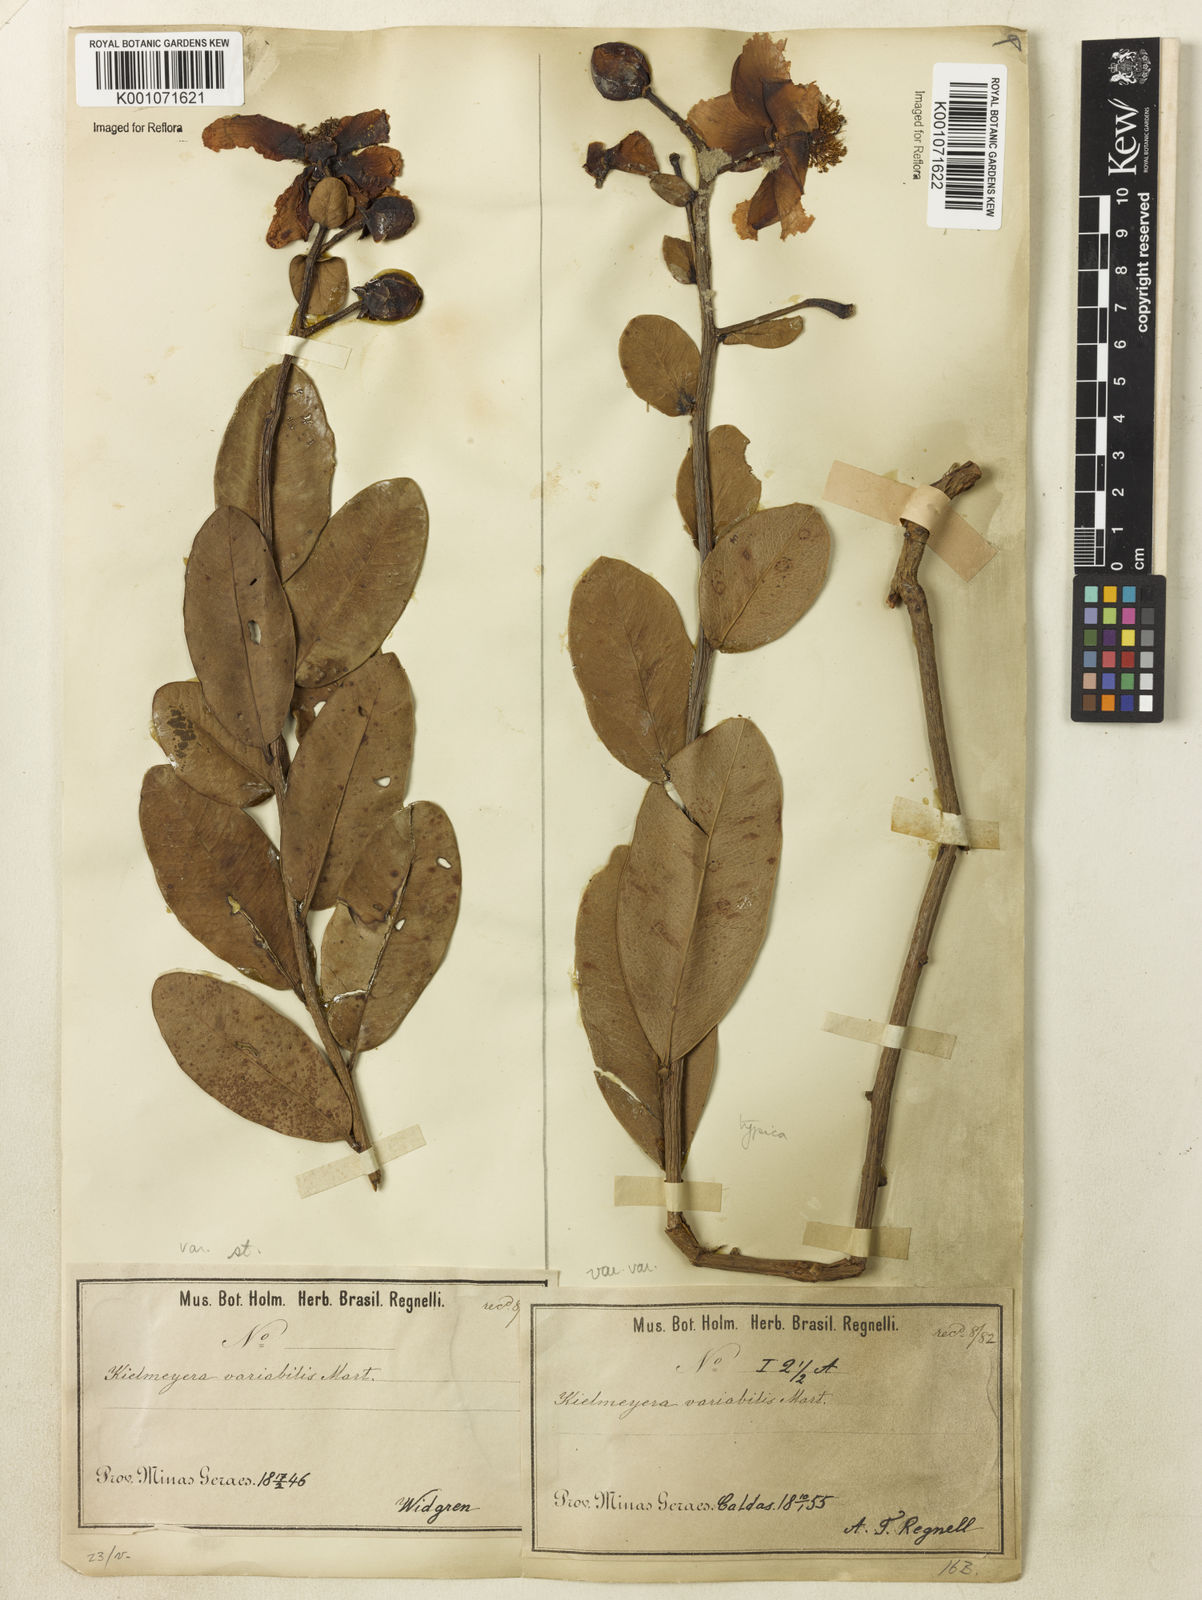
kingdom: Plantae
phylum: Tracheophyta
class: Magnoliopsida
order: Malpighiales
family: Calophyllaceae
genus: Kielmeyera
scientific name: Kielmeyera variabilis
